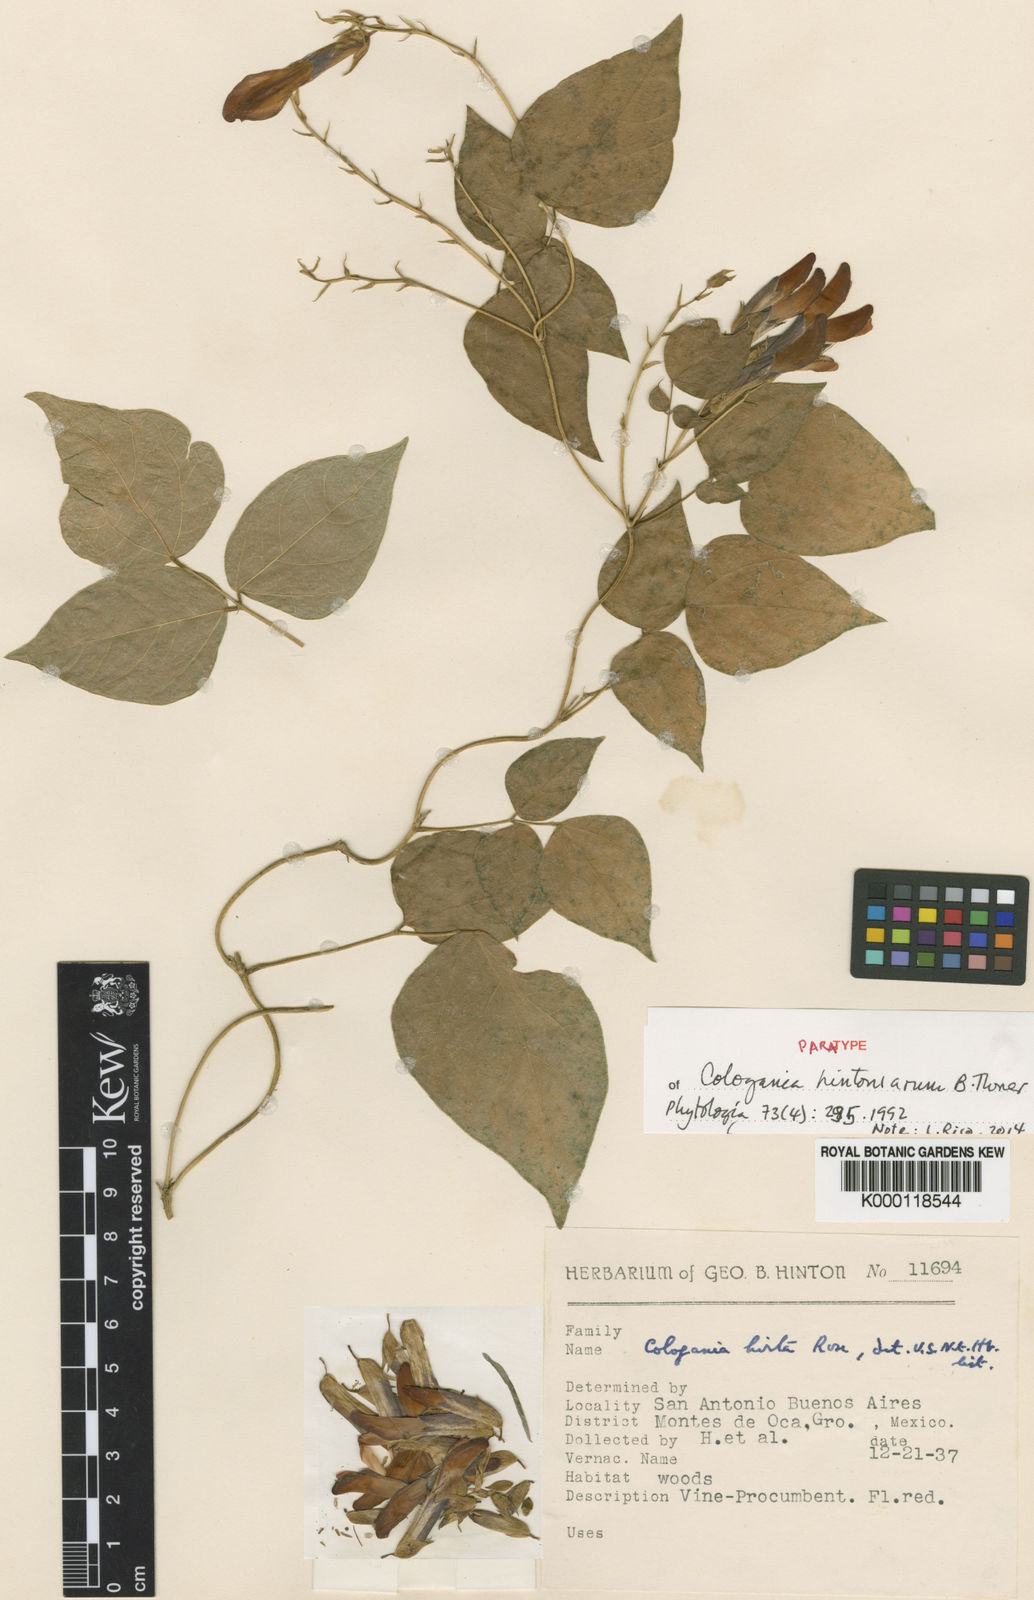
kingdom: Plantae
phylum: Tracheophyta
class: Magnoliopsida
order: Fabales
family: Fabaceae
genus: Cologania
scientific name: Cologania hintoniorum
